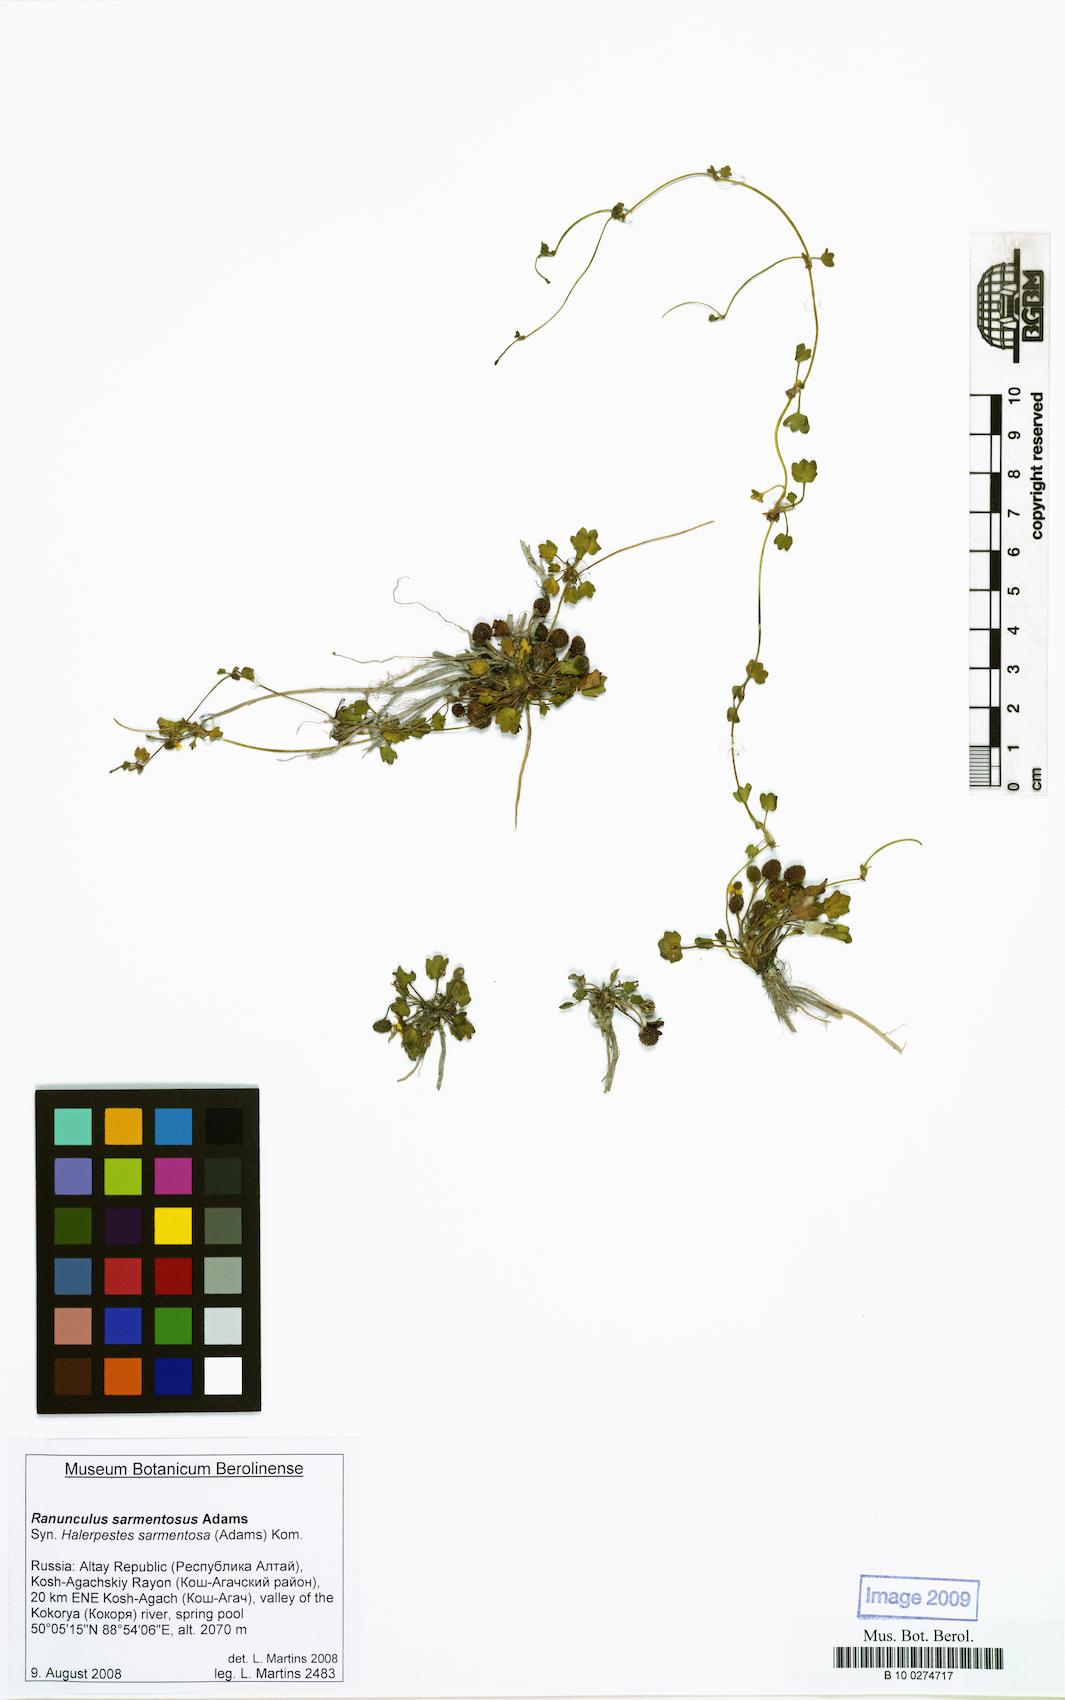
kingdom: Plantae
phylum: Tracheophyta
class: Magnoliopsida
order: Ranunculales
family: Ranunculaceae
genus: Halerpestes
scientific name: Halerpestes sarmentosus
